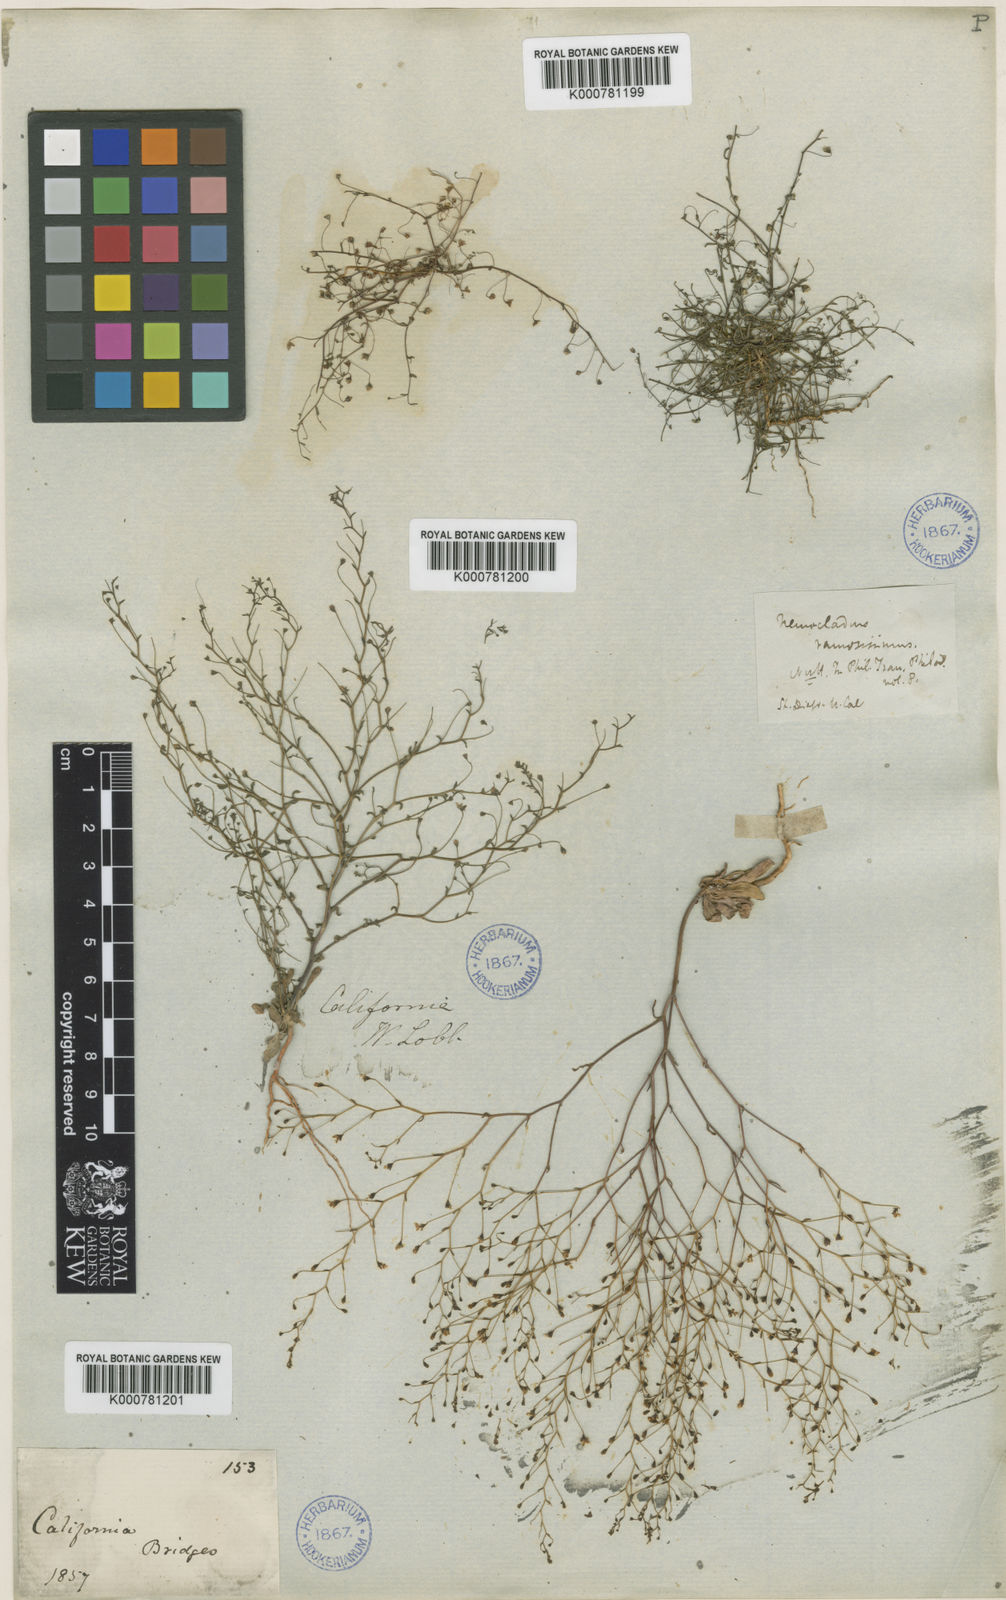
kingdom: Plantae
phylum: Tracheophyta
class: Magnoliopsida
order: Asterales
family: Campanulaceae
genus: Nemacladus
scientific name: Nemacladus ramosissimus
